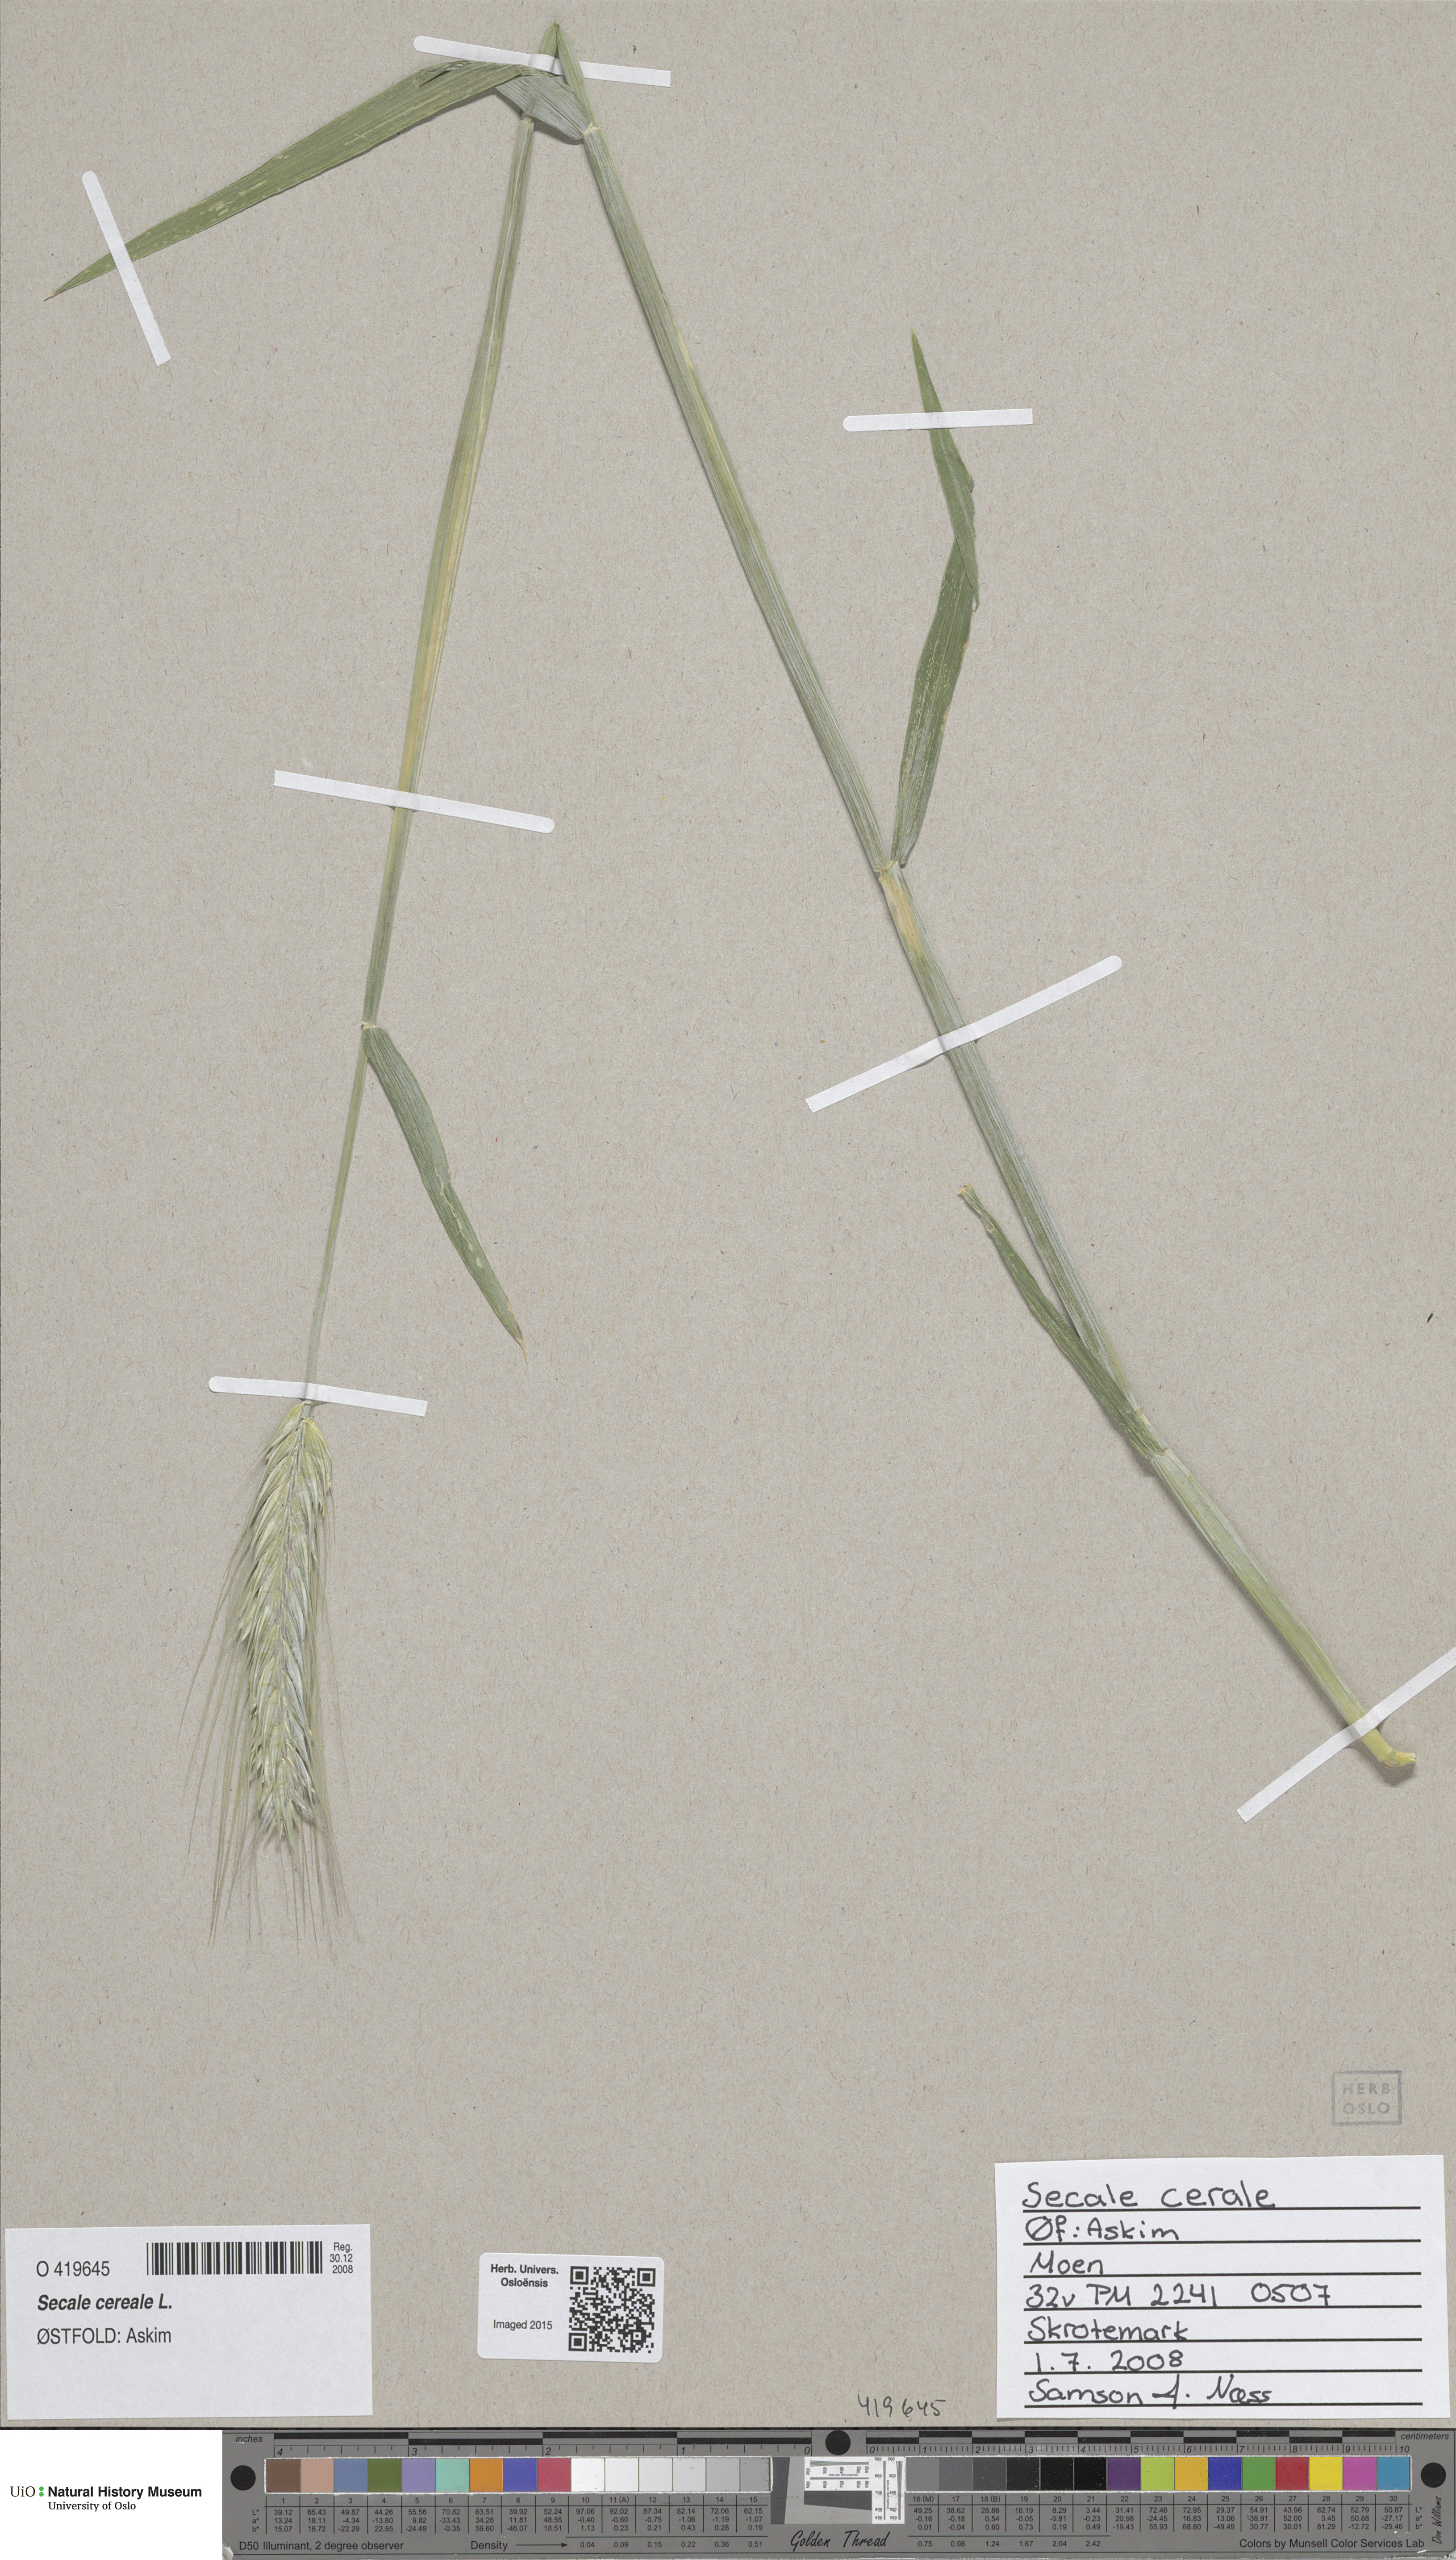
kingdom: Plantae
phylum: Tracheophyta
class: Liliopsida
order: Poales
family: Poaceae
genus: Secale
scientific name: Secale cereale
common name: Rye
